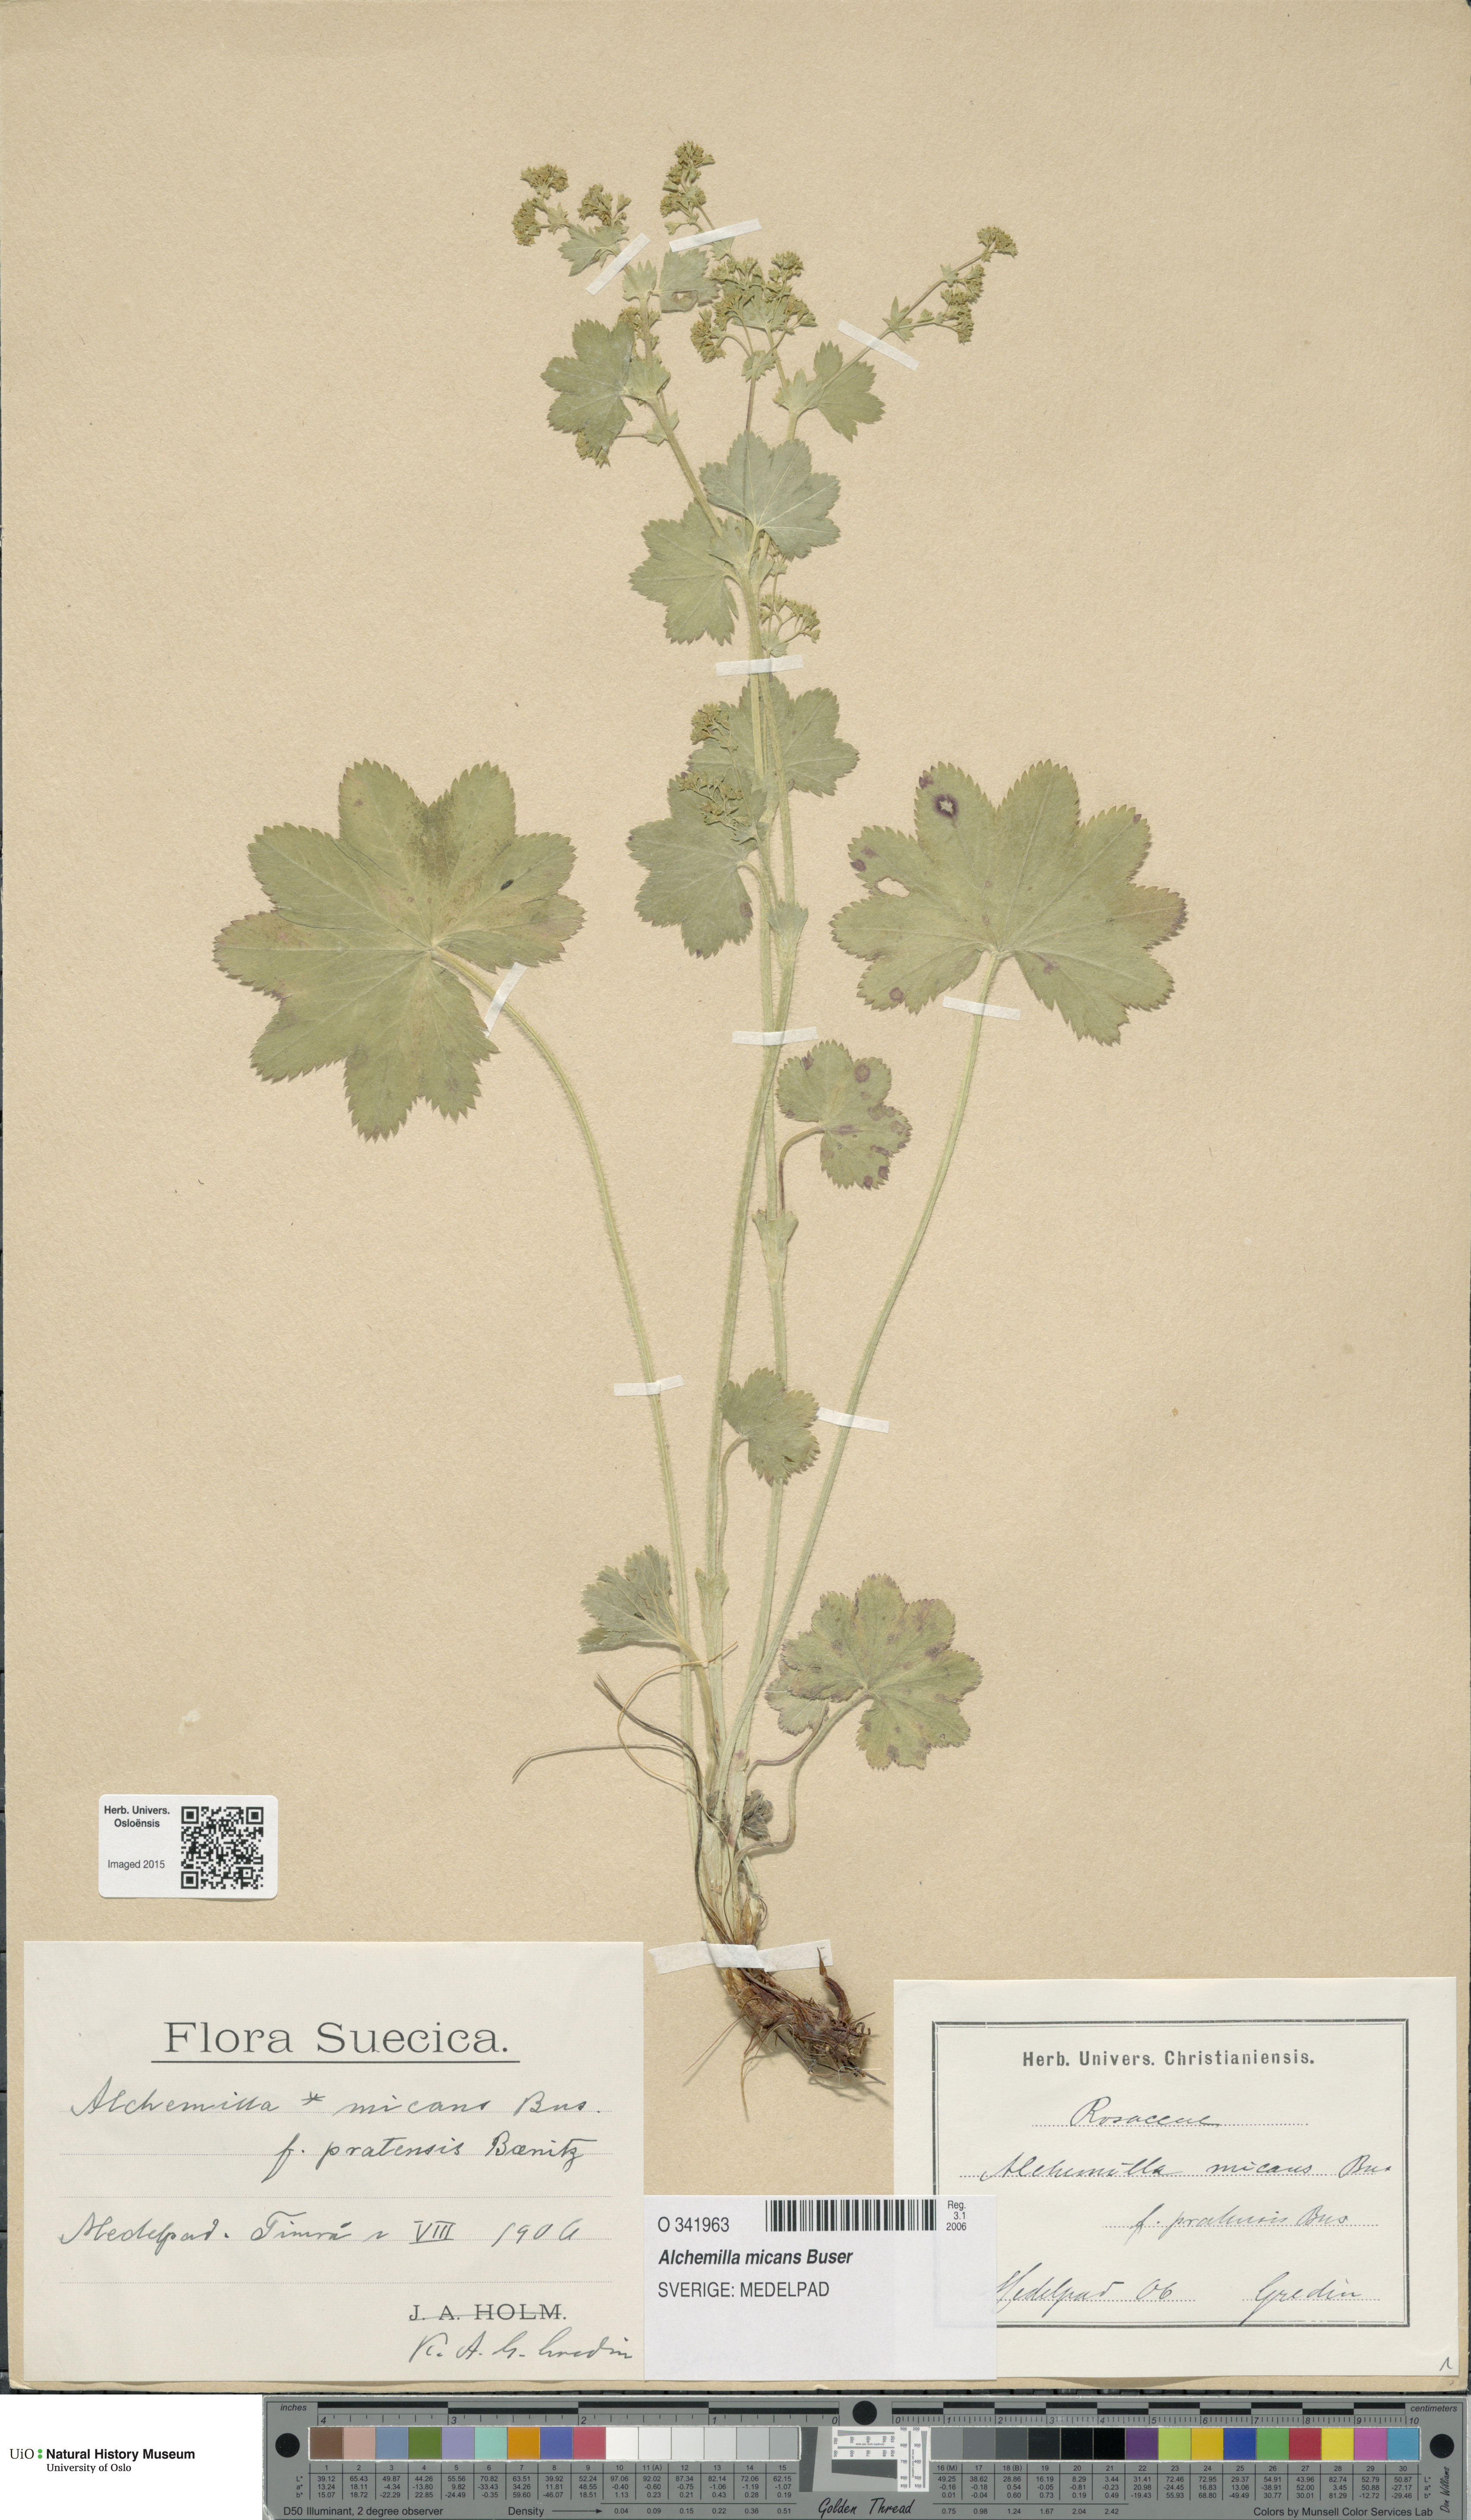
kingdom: Plantae
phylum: Tracheophyta
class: Magnoliopsida
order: Rosales
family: Rosaceae
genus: Alchemilla
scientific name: Alchemilla micans
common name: Gleaming lady's mantle
